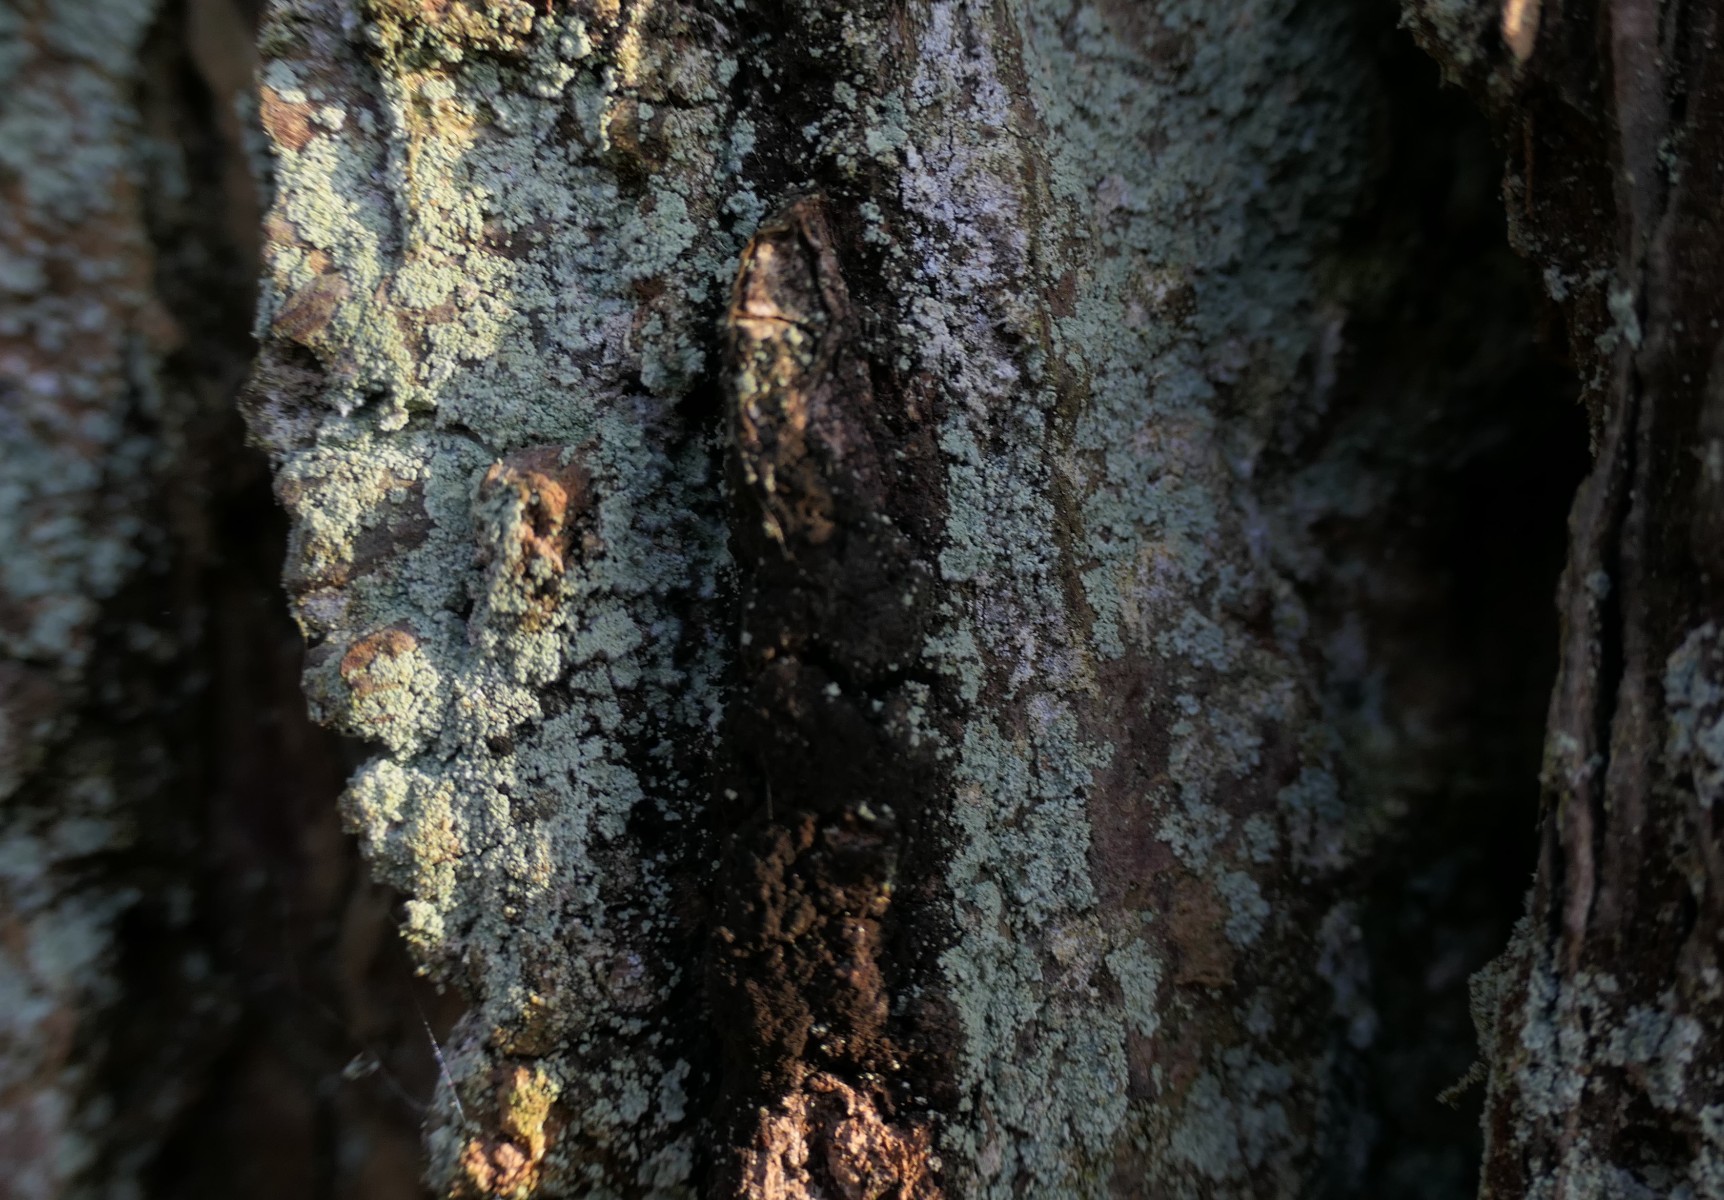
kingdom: Fungi
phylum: Ascomycota
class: Lecanoromycetes
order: Lecanorales
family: Stereocaulaceae
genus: Lepraria
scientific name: Lepraria incana
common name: almindelig støvlav
